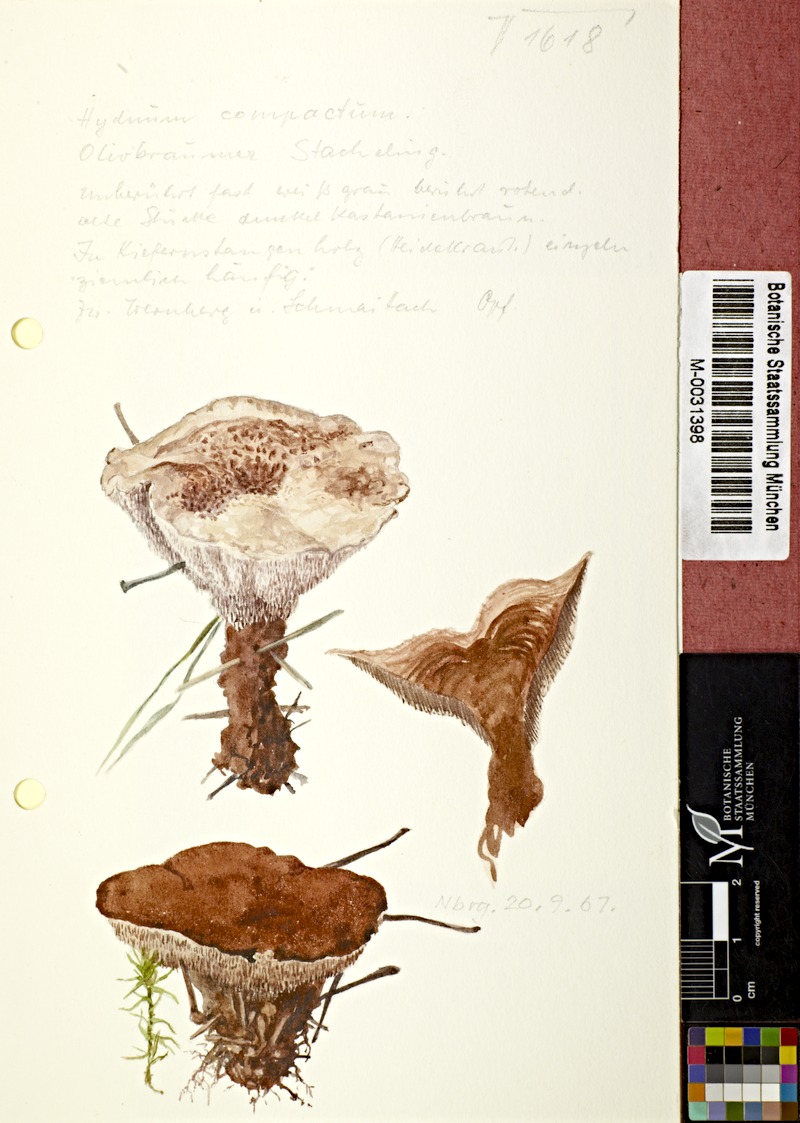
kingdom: Fungi
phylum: Basidiomycota
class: Agaricomycetes
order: Thelephorales
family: Bankeraceae
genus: Hydnellum
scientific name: Hydnellum ferrugineum
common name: Mealy tooth
